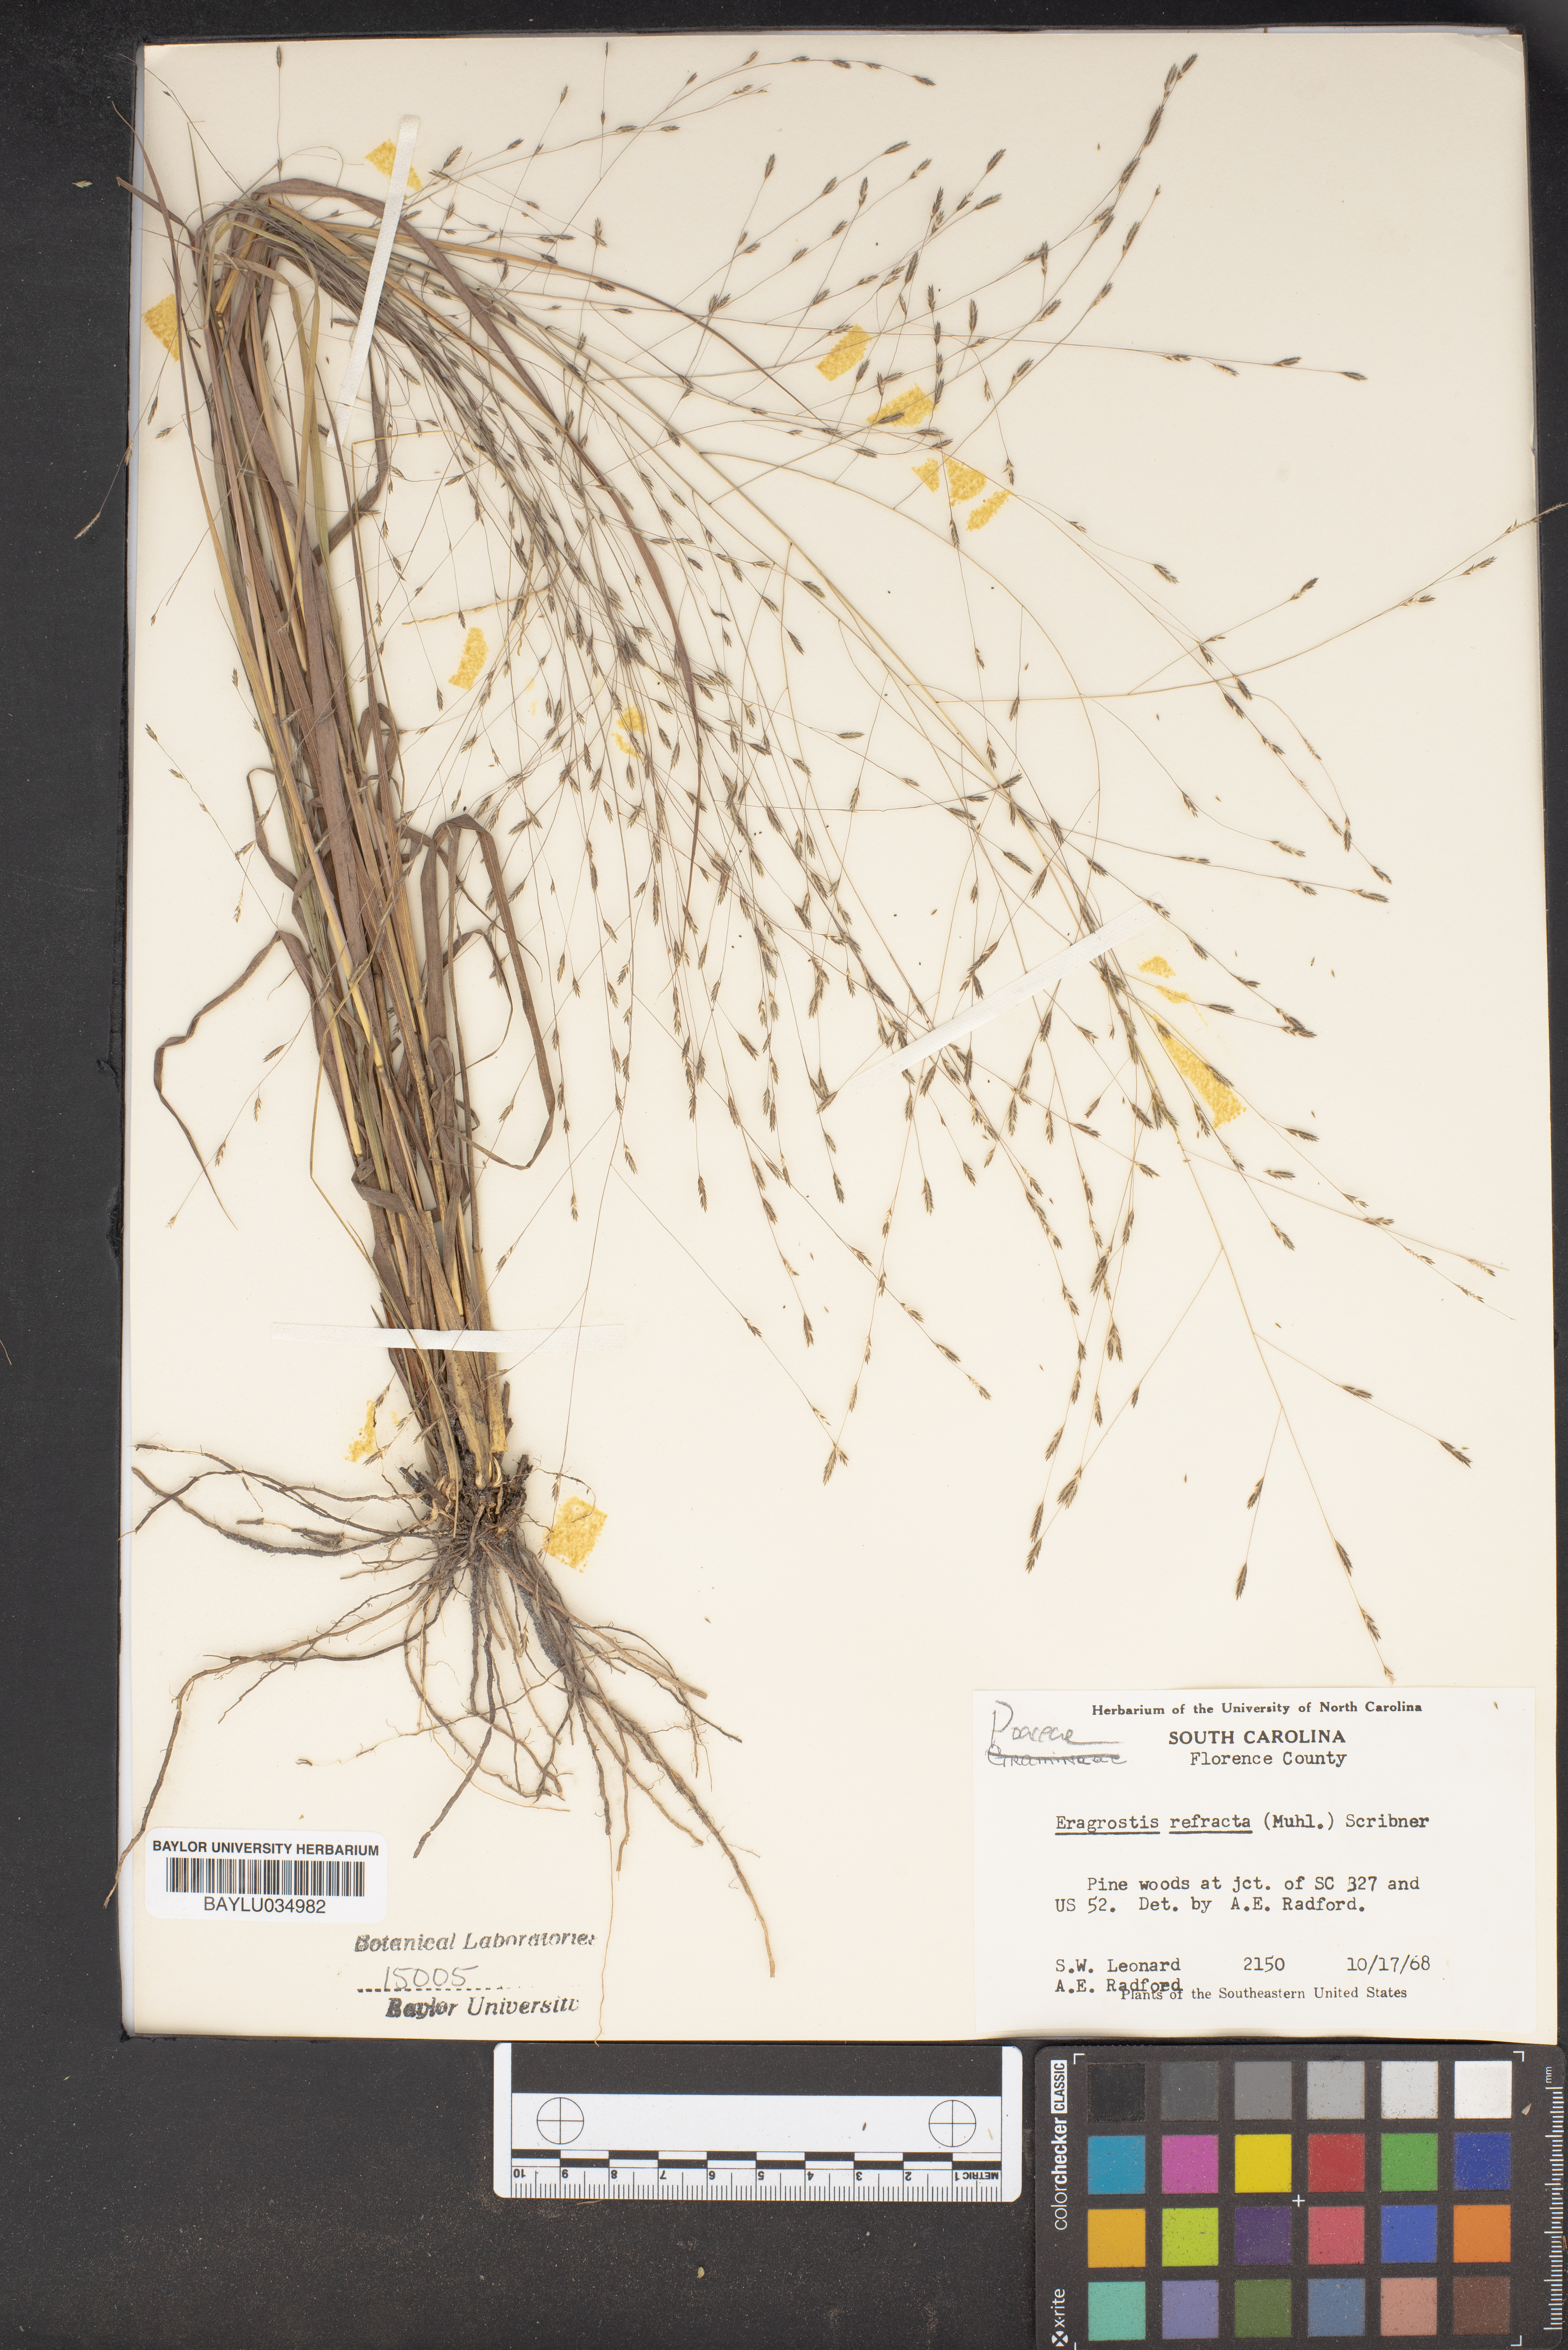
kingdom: Plantae
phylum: Tracheophyta
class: Liliopsida
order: Poales
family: Poaceae
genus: Eragrostis
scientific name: Eragrostis refracta
